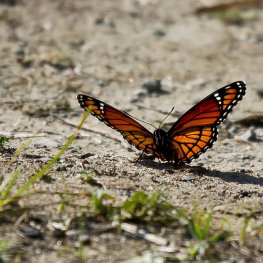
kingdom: Animalia
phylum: Arthropoda
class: Insecta
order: Lepidoptera
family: Nymphalidae
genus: Limenitis
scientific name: Limenitis archippus
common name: Viceroy
